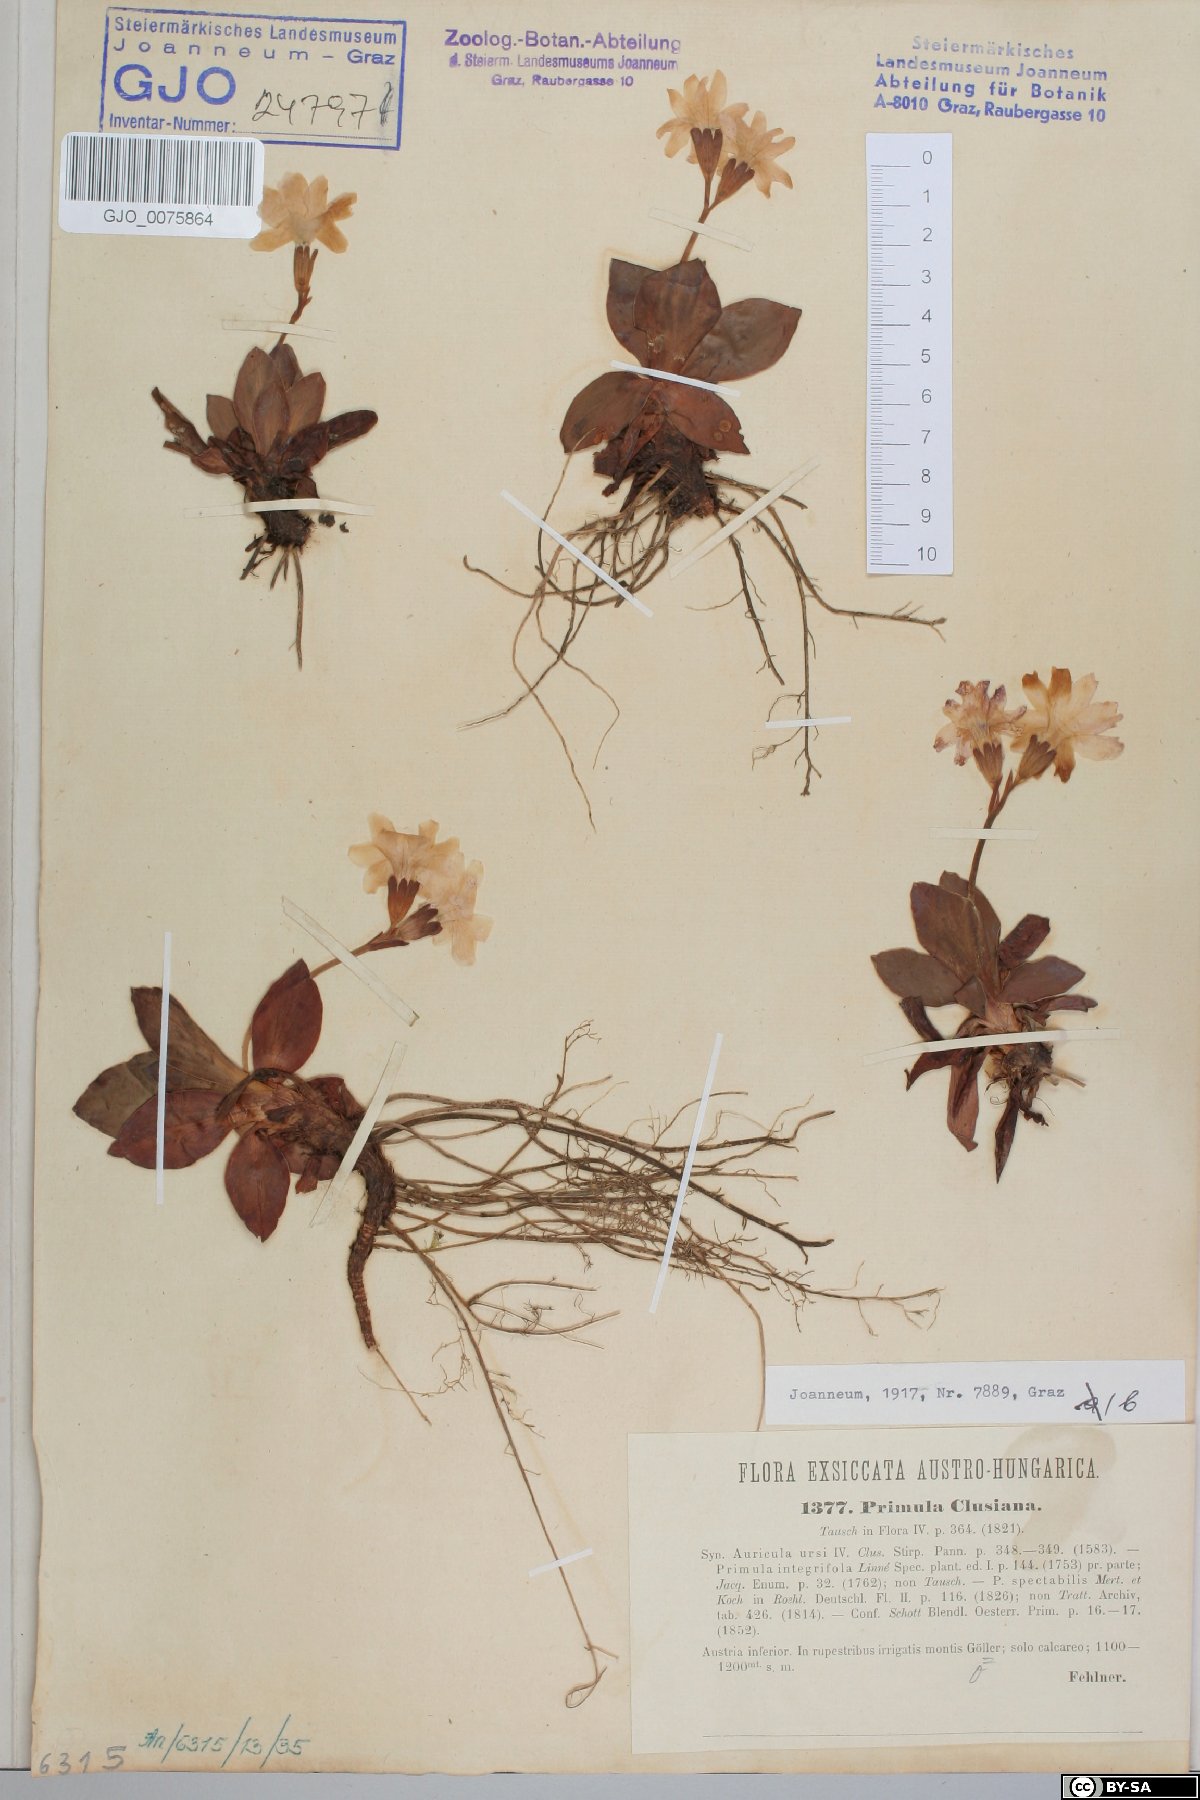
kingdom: Plantae
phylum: Tracheophyta
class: Magnoliopsida
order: Ericales
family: Primulaceae
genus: Primula
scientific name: Primula clusiana
